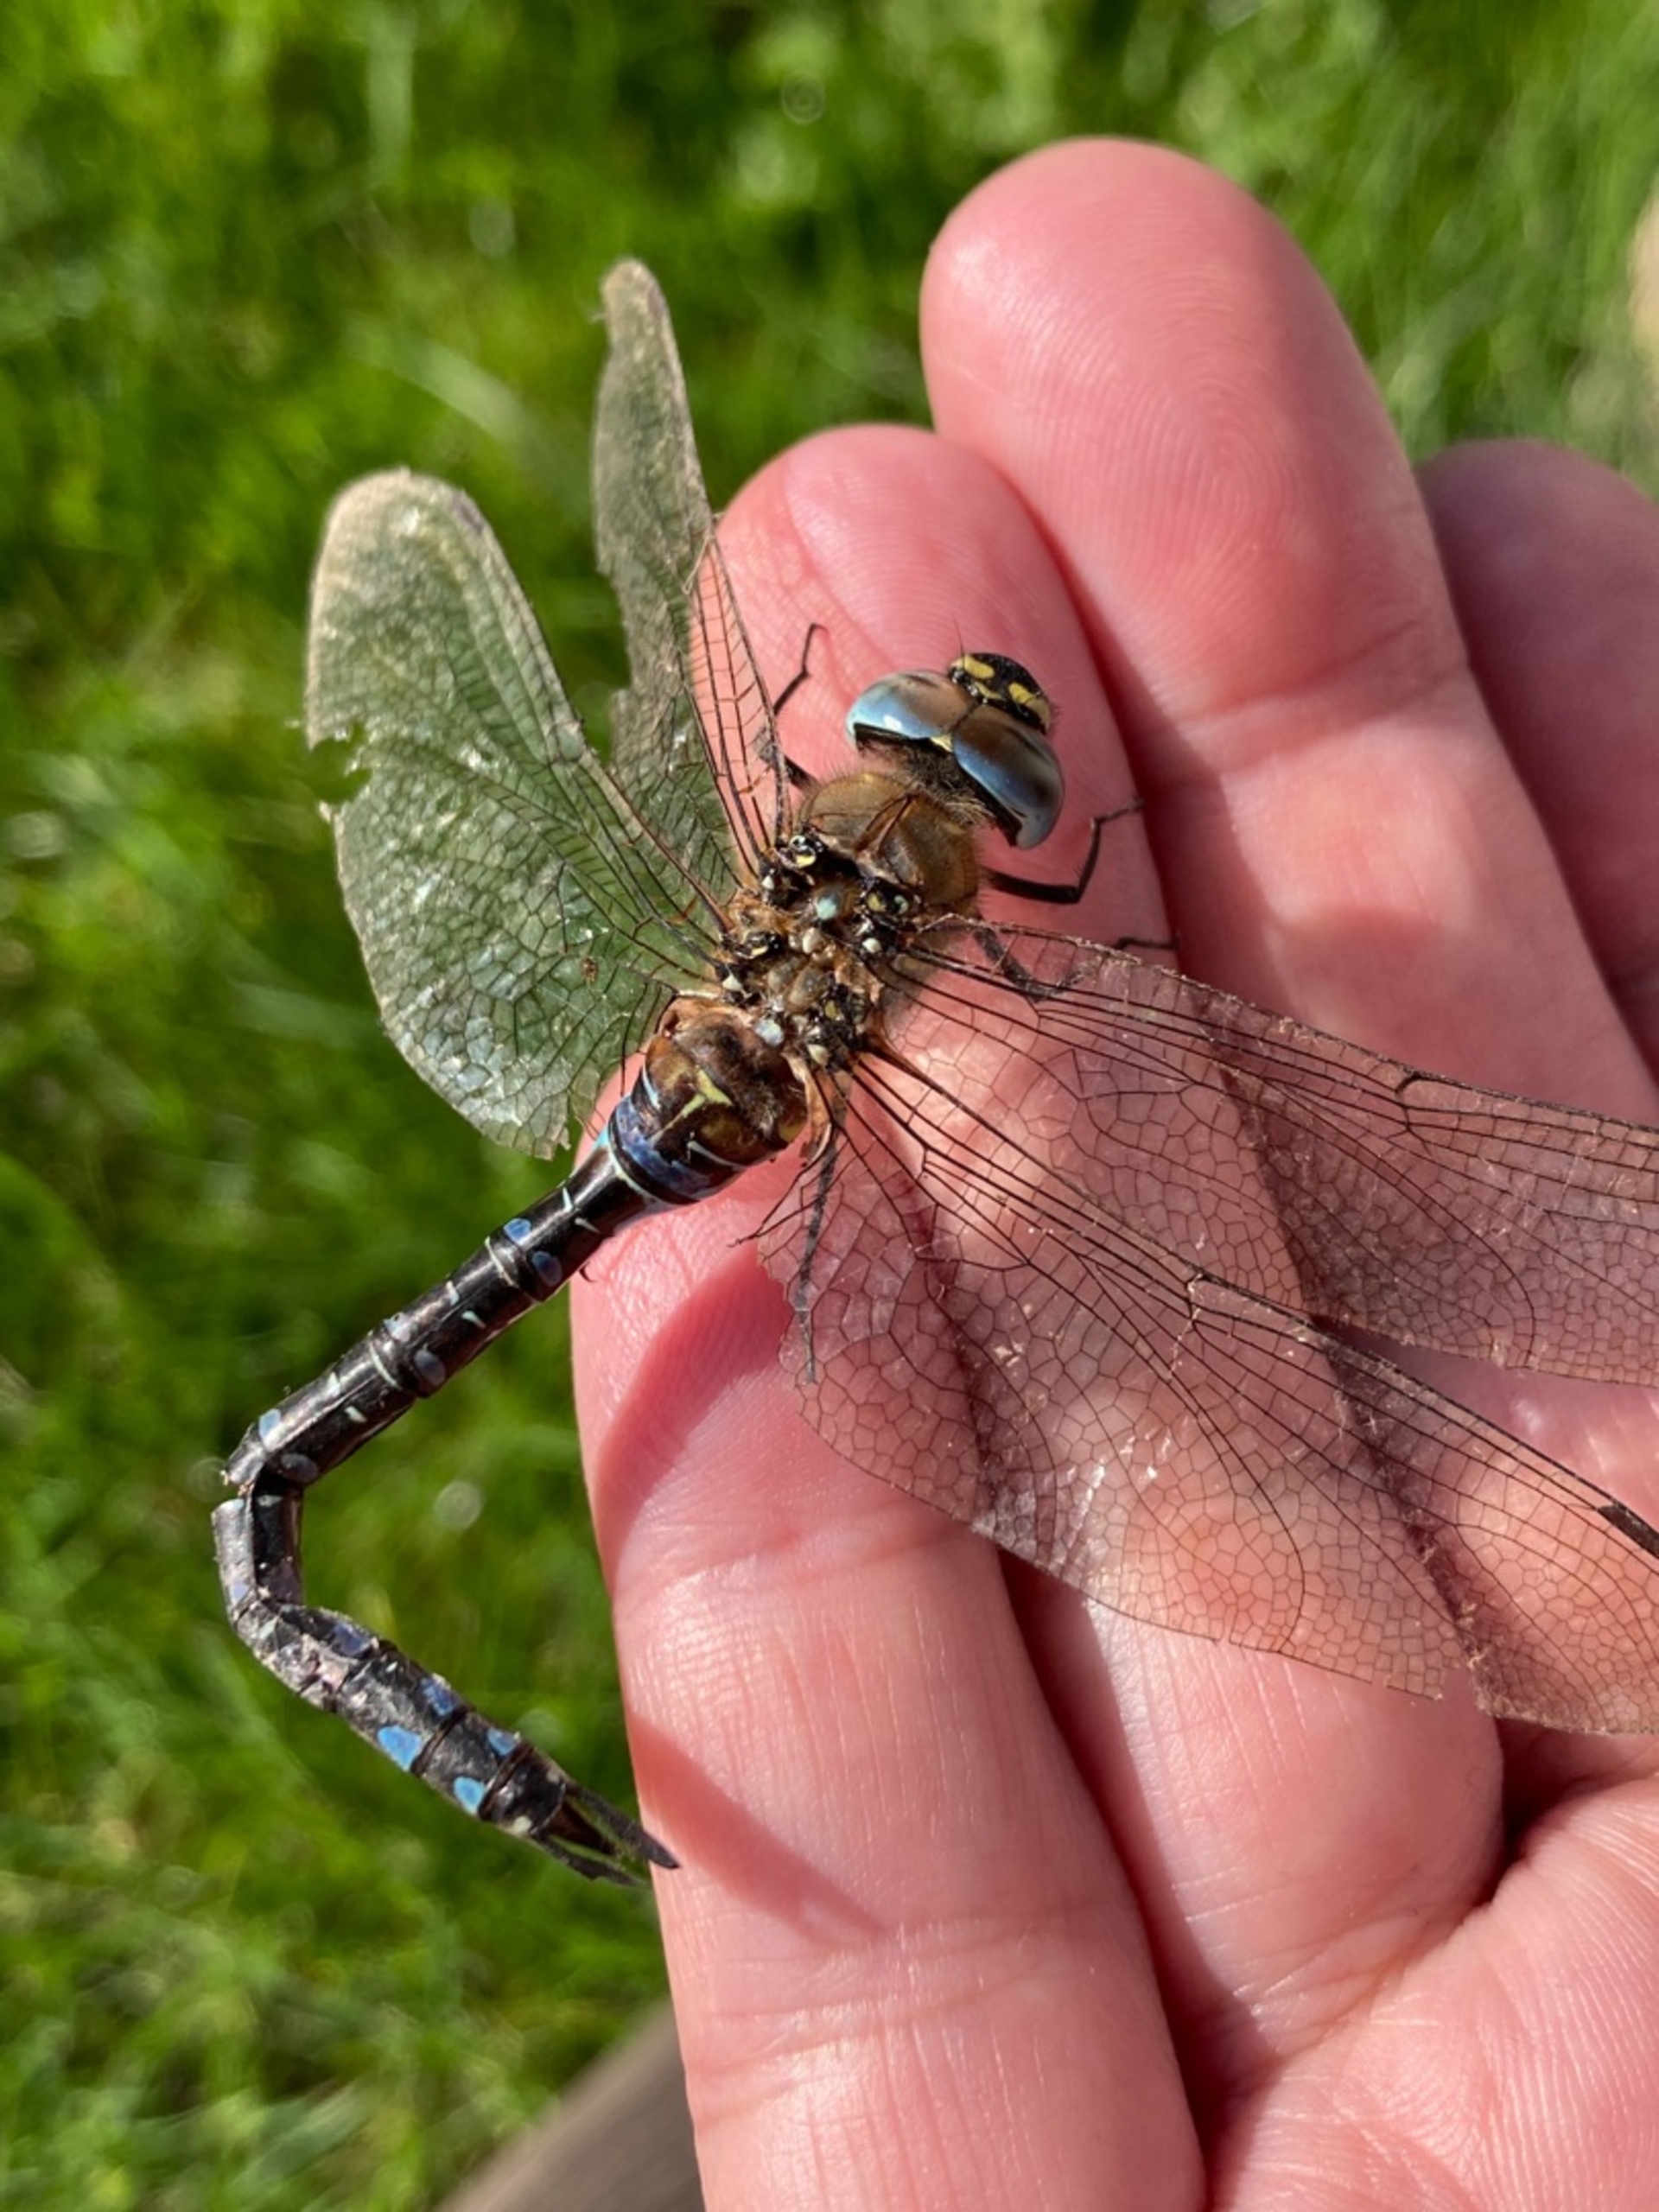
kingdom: Animalia
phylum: Arthropoda
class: Insecta
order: Odonata
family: Aeshnidae
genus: Aeshna
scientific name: Aeshna mixta
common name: Efterårs-mosaikguldsmed
